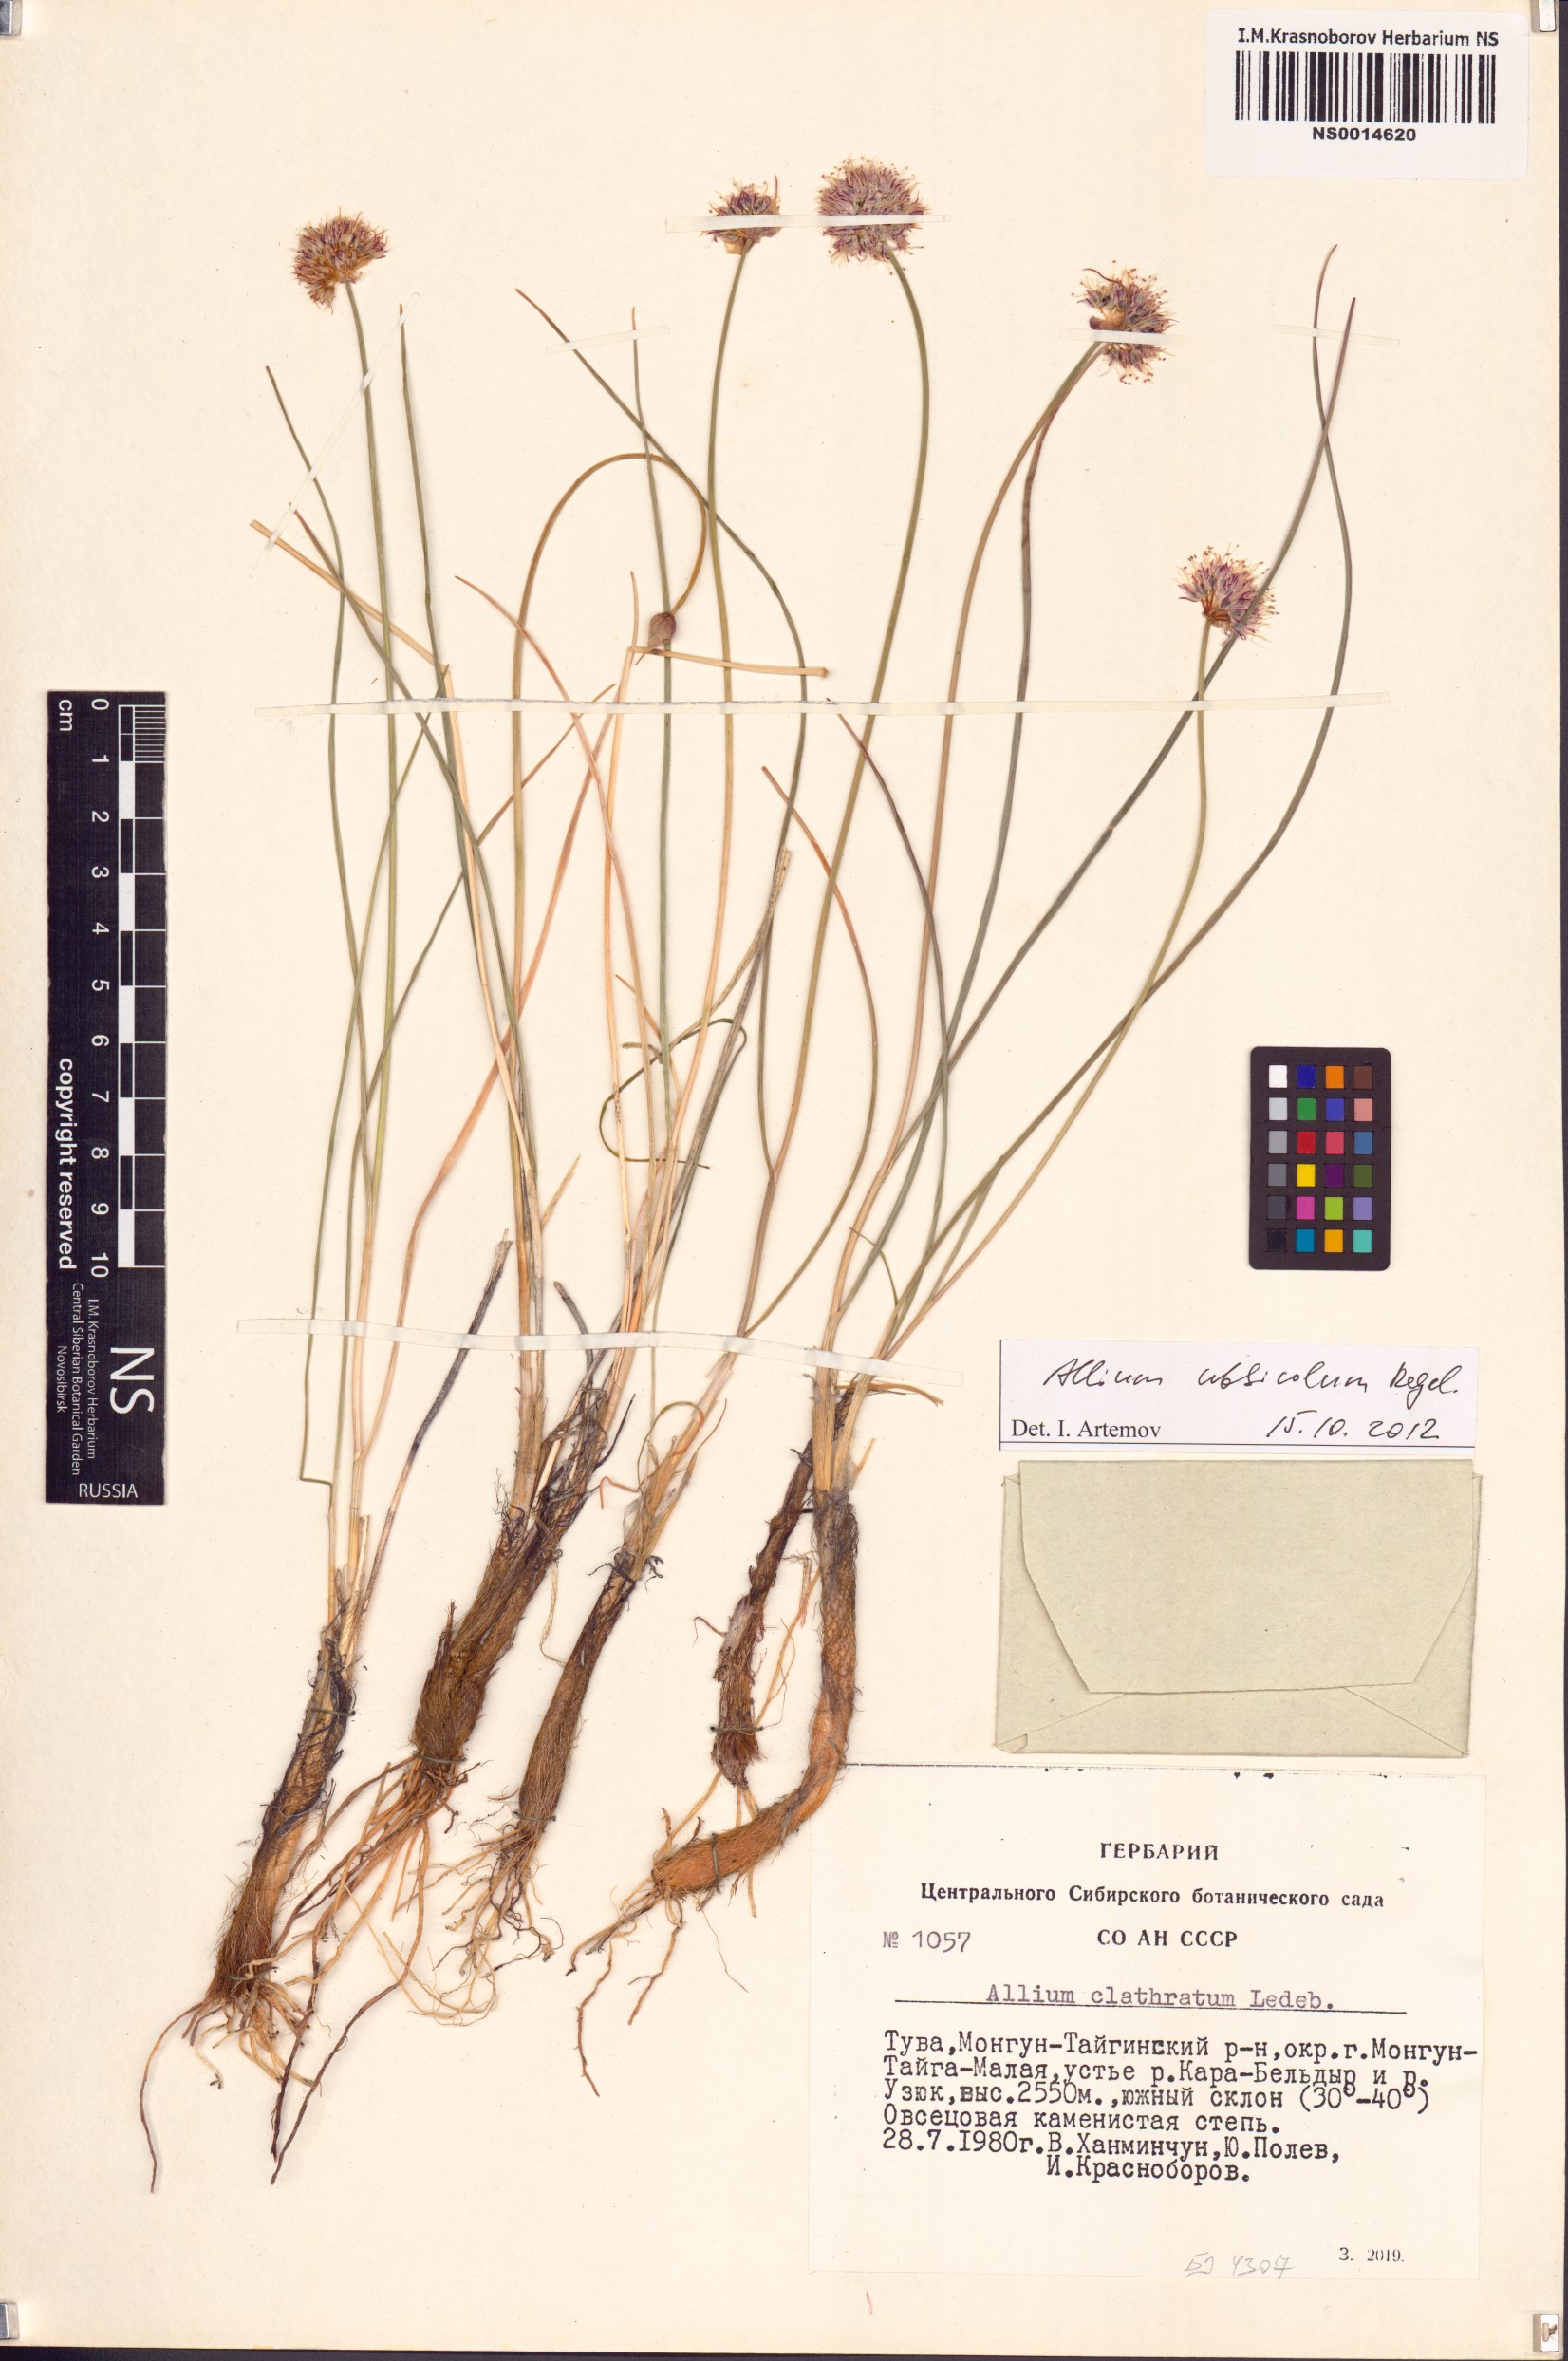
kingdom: Plantae
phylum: Tracheophyta
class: Liliopsida
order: Asparagales
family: Amaryllidaceae
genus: Allium
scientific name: Allium ubsicola
